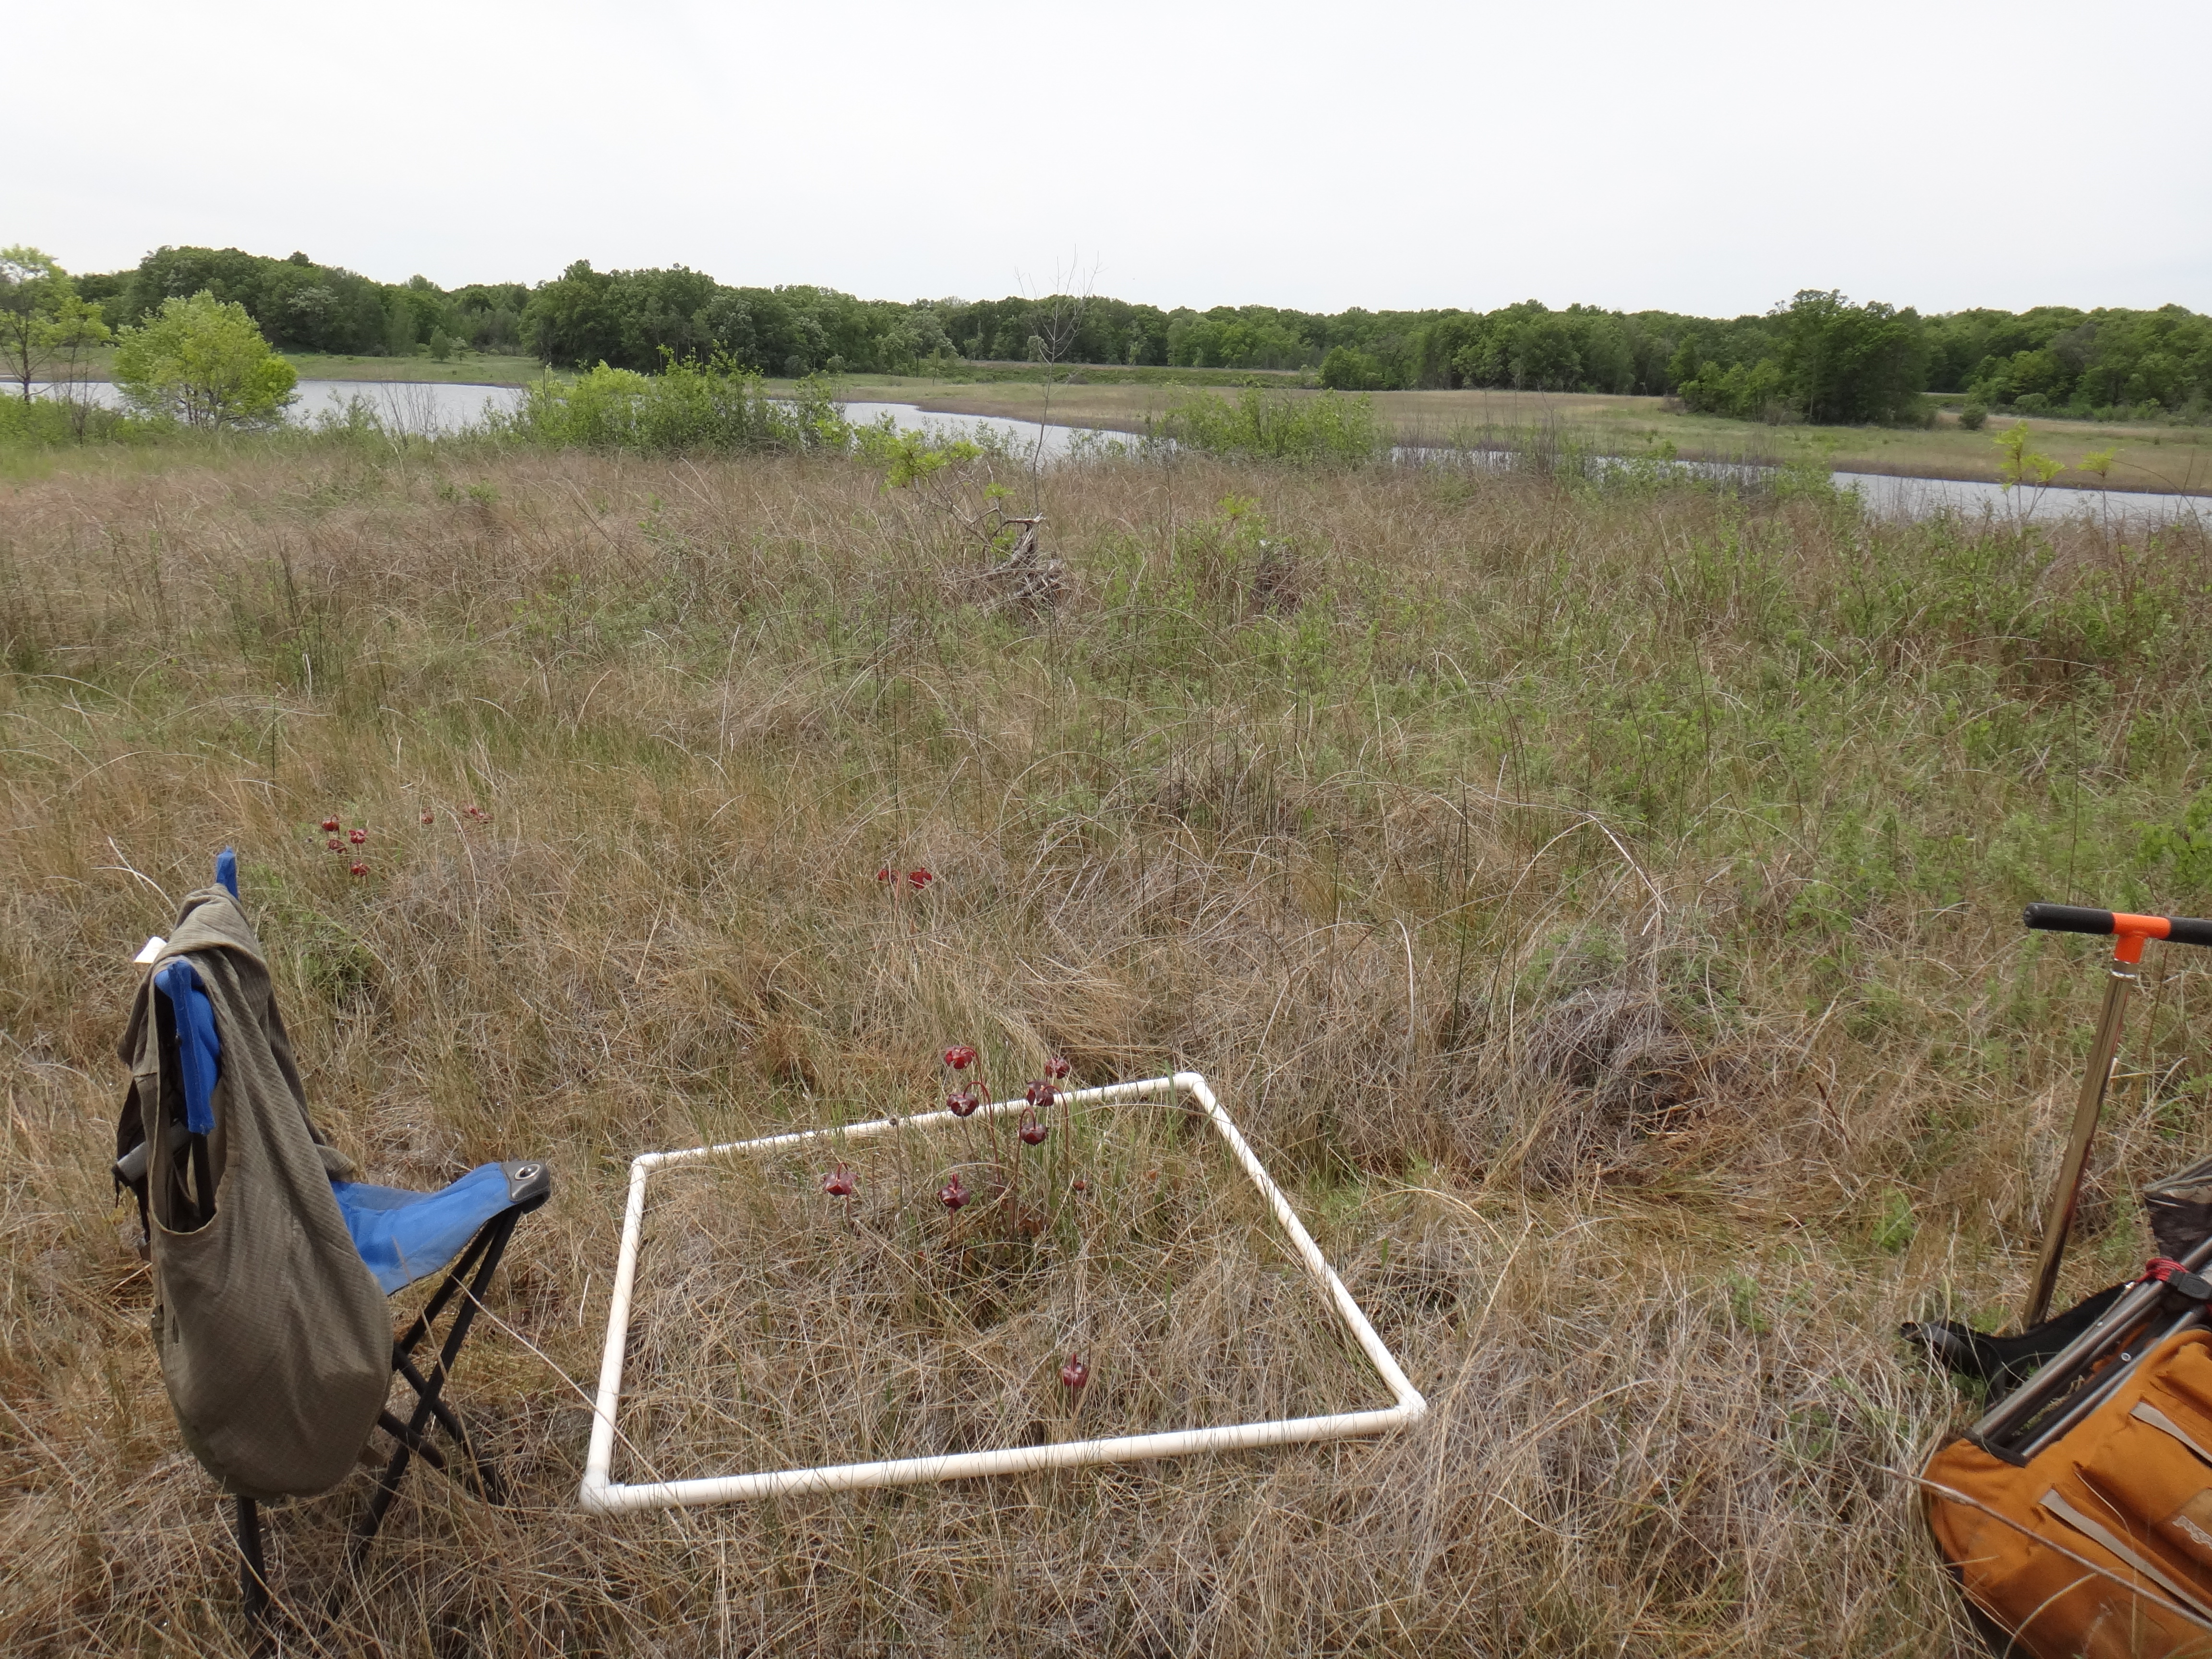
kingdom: Plantae
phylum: Tracheophyta
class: Liliopsida
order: Poales
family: Cyperaceae
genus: Schoenoplectus
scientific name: Schoenoplectus pungens
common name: Sharp club-rush
